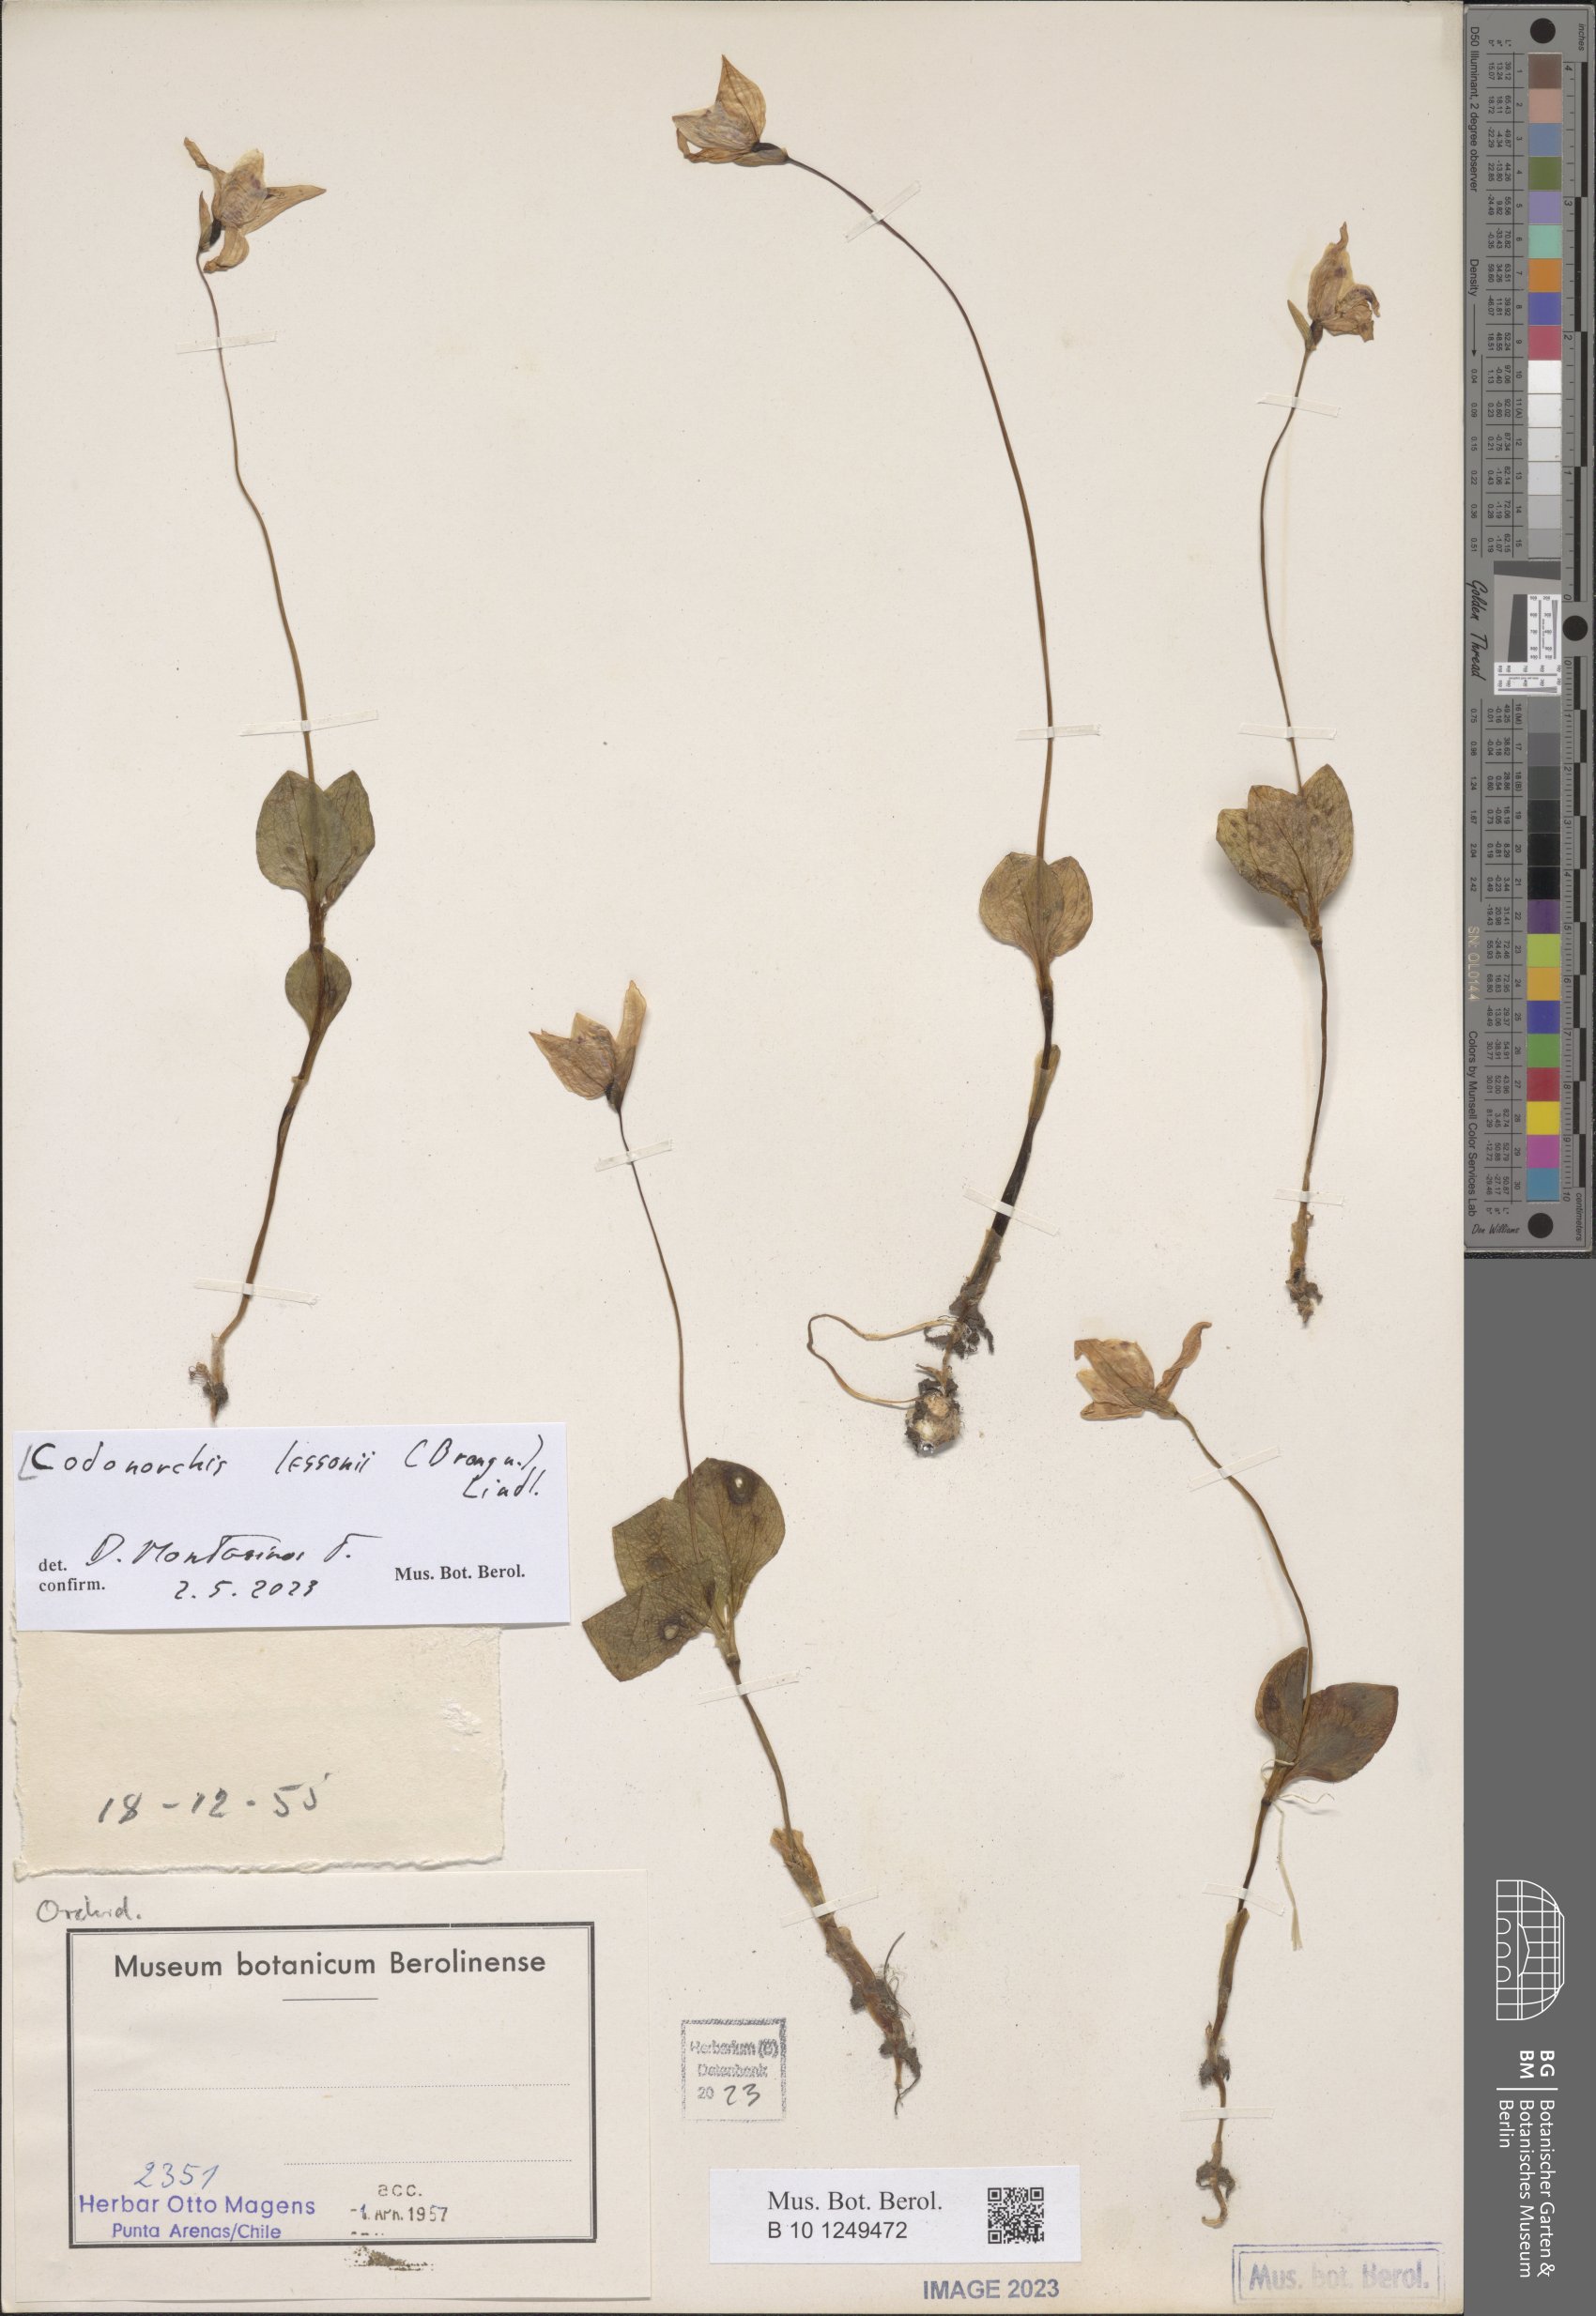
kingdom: Plantae
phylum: Tracheophyta
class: Liliopsida
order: Asparagales
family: Orchidaceae
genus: Codonorchis
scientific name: Codonorchis lessonii
